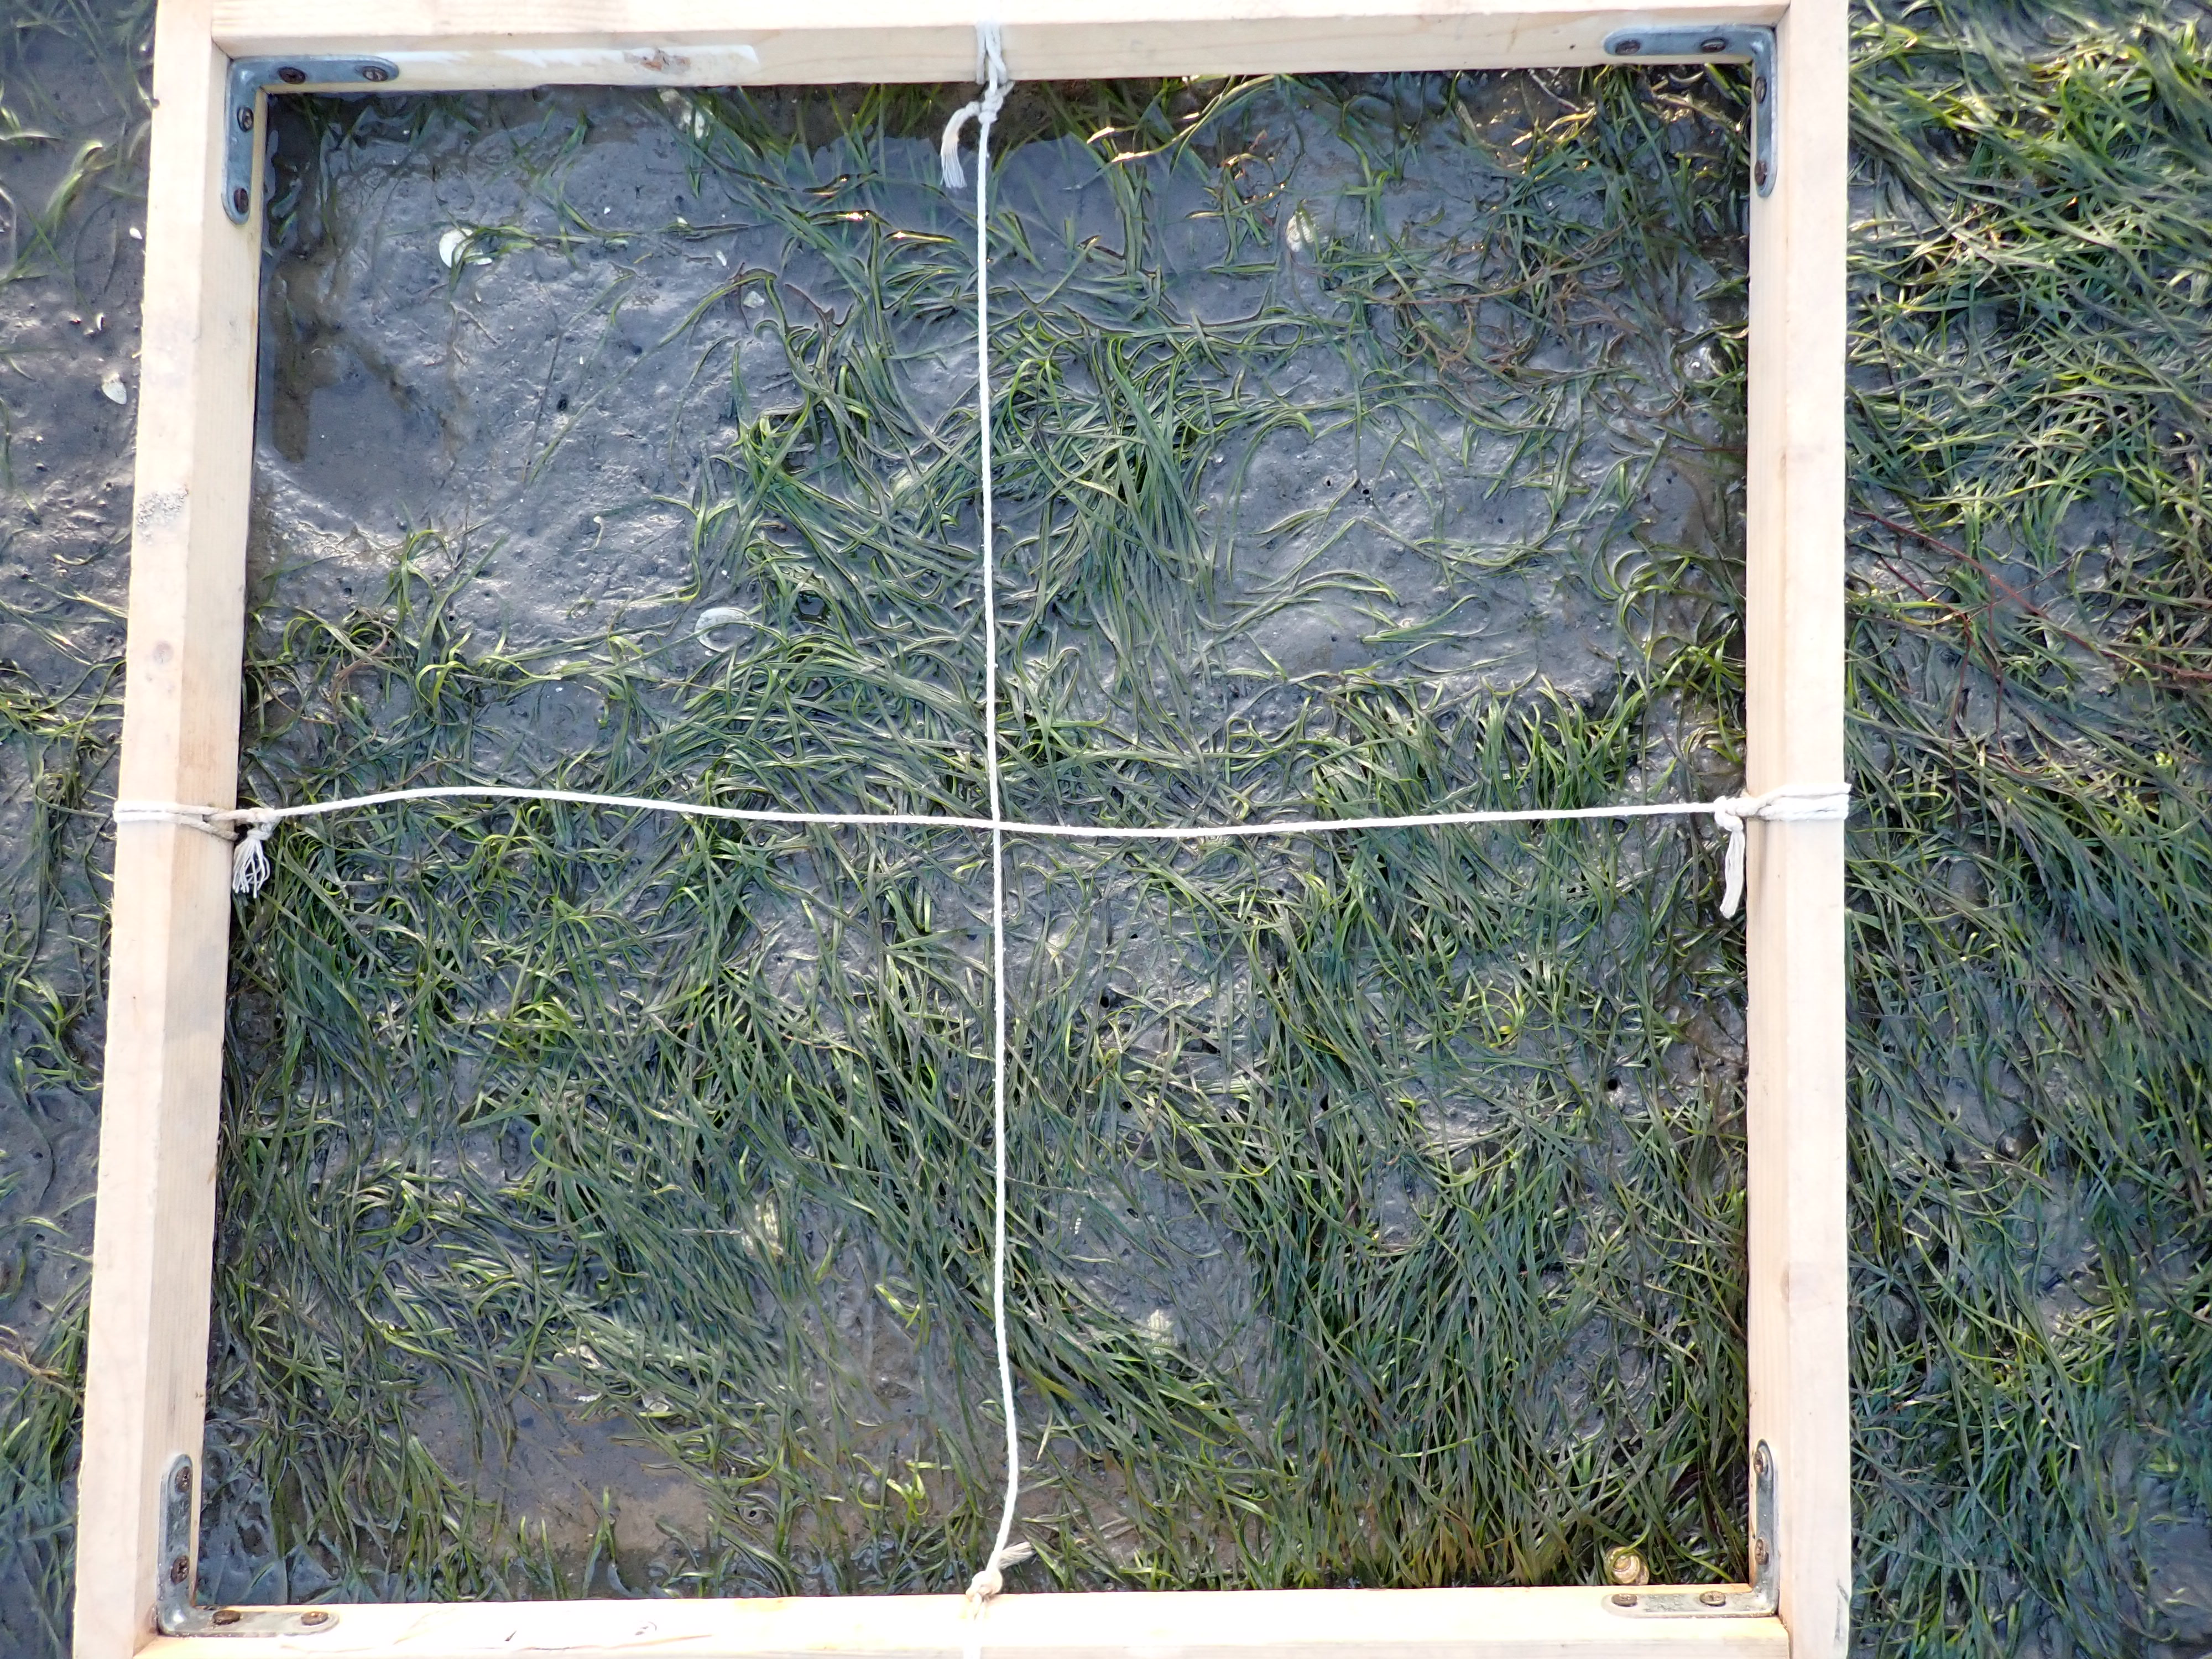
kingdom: Plantae
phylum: Tracheophyta
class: Liliopsida
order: Alismatales
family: Zosteraceae
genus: Zostera
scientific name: Zostera noltii
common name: Dwarf eelgrass
